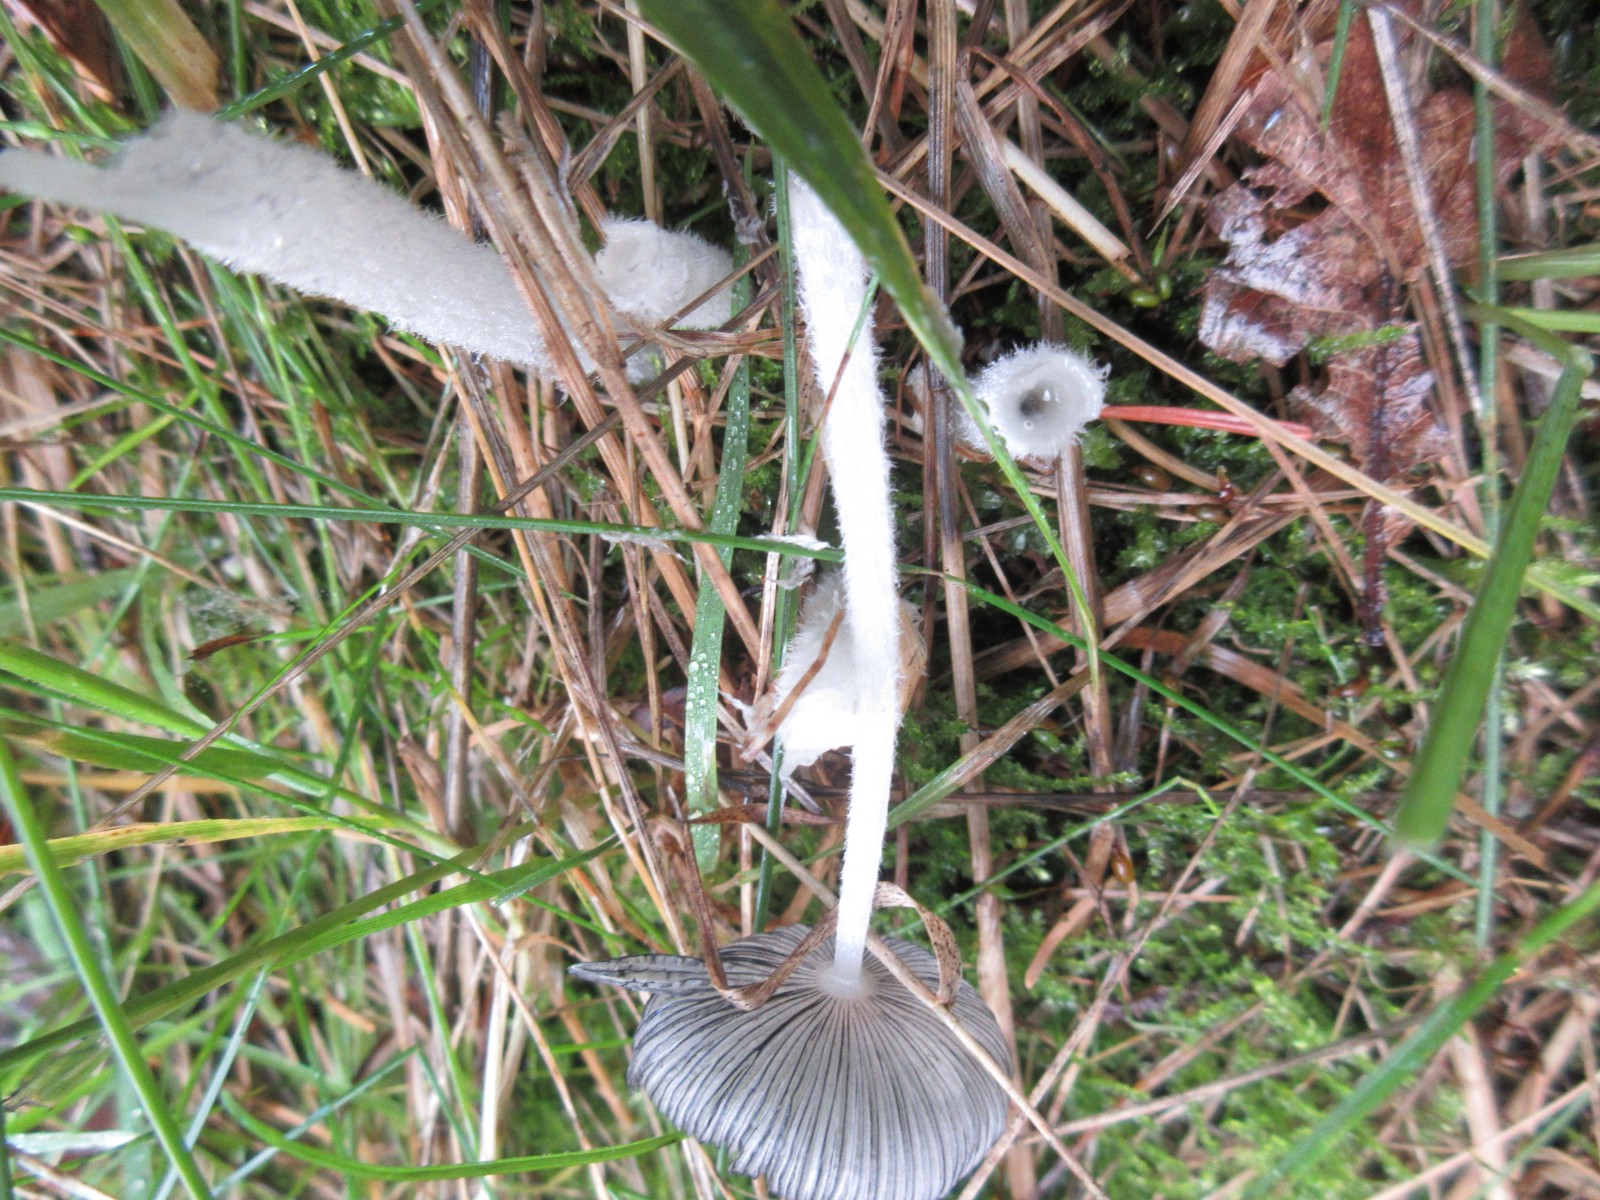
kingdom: Fungi
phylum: Basidiomycota
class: Agaricomycetes
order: Agaricales
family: Psathyrellaceae
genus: Coprinopsis
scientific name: Coprinopsis lagopus
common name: dunstokket blækhat
